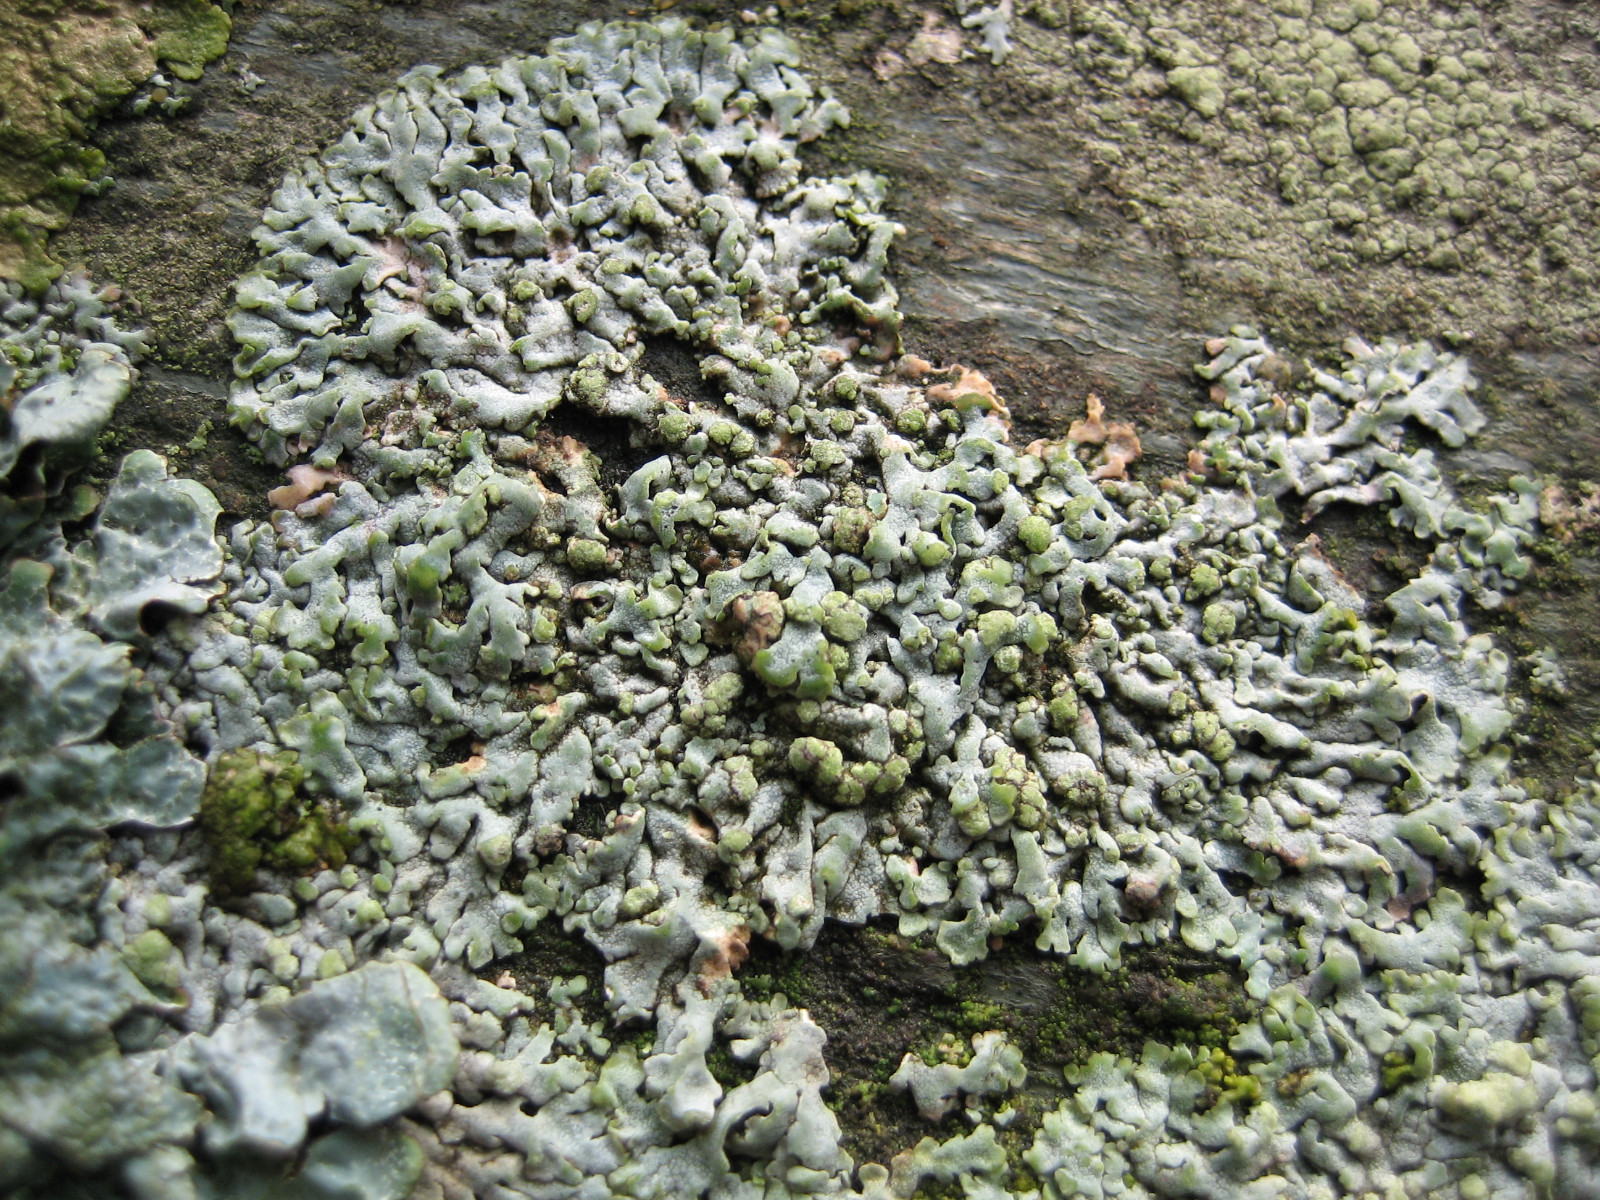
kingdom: Fungi
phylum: Ascomycota
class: Lecanoromycetes
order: Caliciales
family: Physciaceae
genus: Physcia
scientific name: Physcia caesia
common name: blågrå rosetlav
